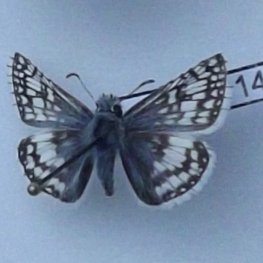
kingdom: Animalia
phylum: Arthropoda
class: Insecta
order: Lepidoptera
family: Hesperiidae
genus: Pyrgus
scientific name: Pyrgus communis
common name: Common Checkered-Skipper
